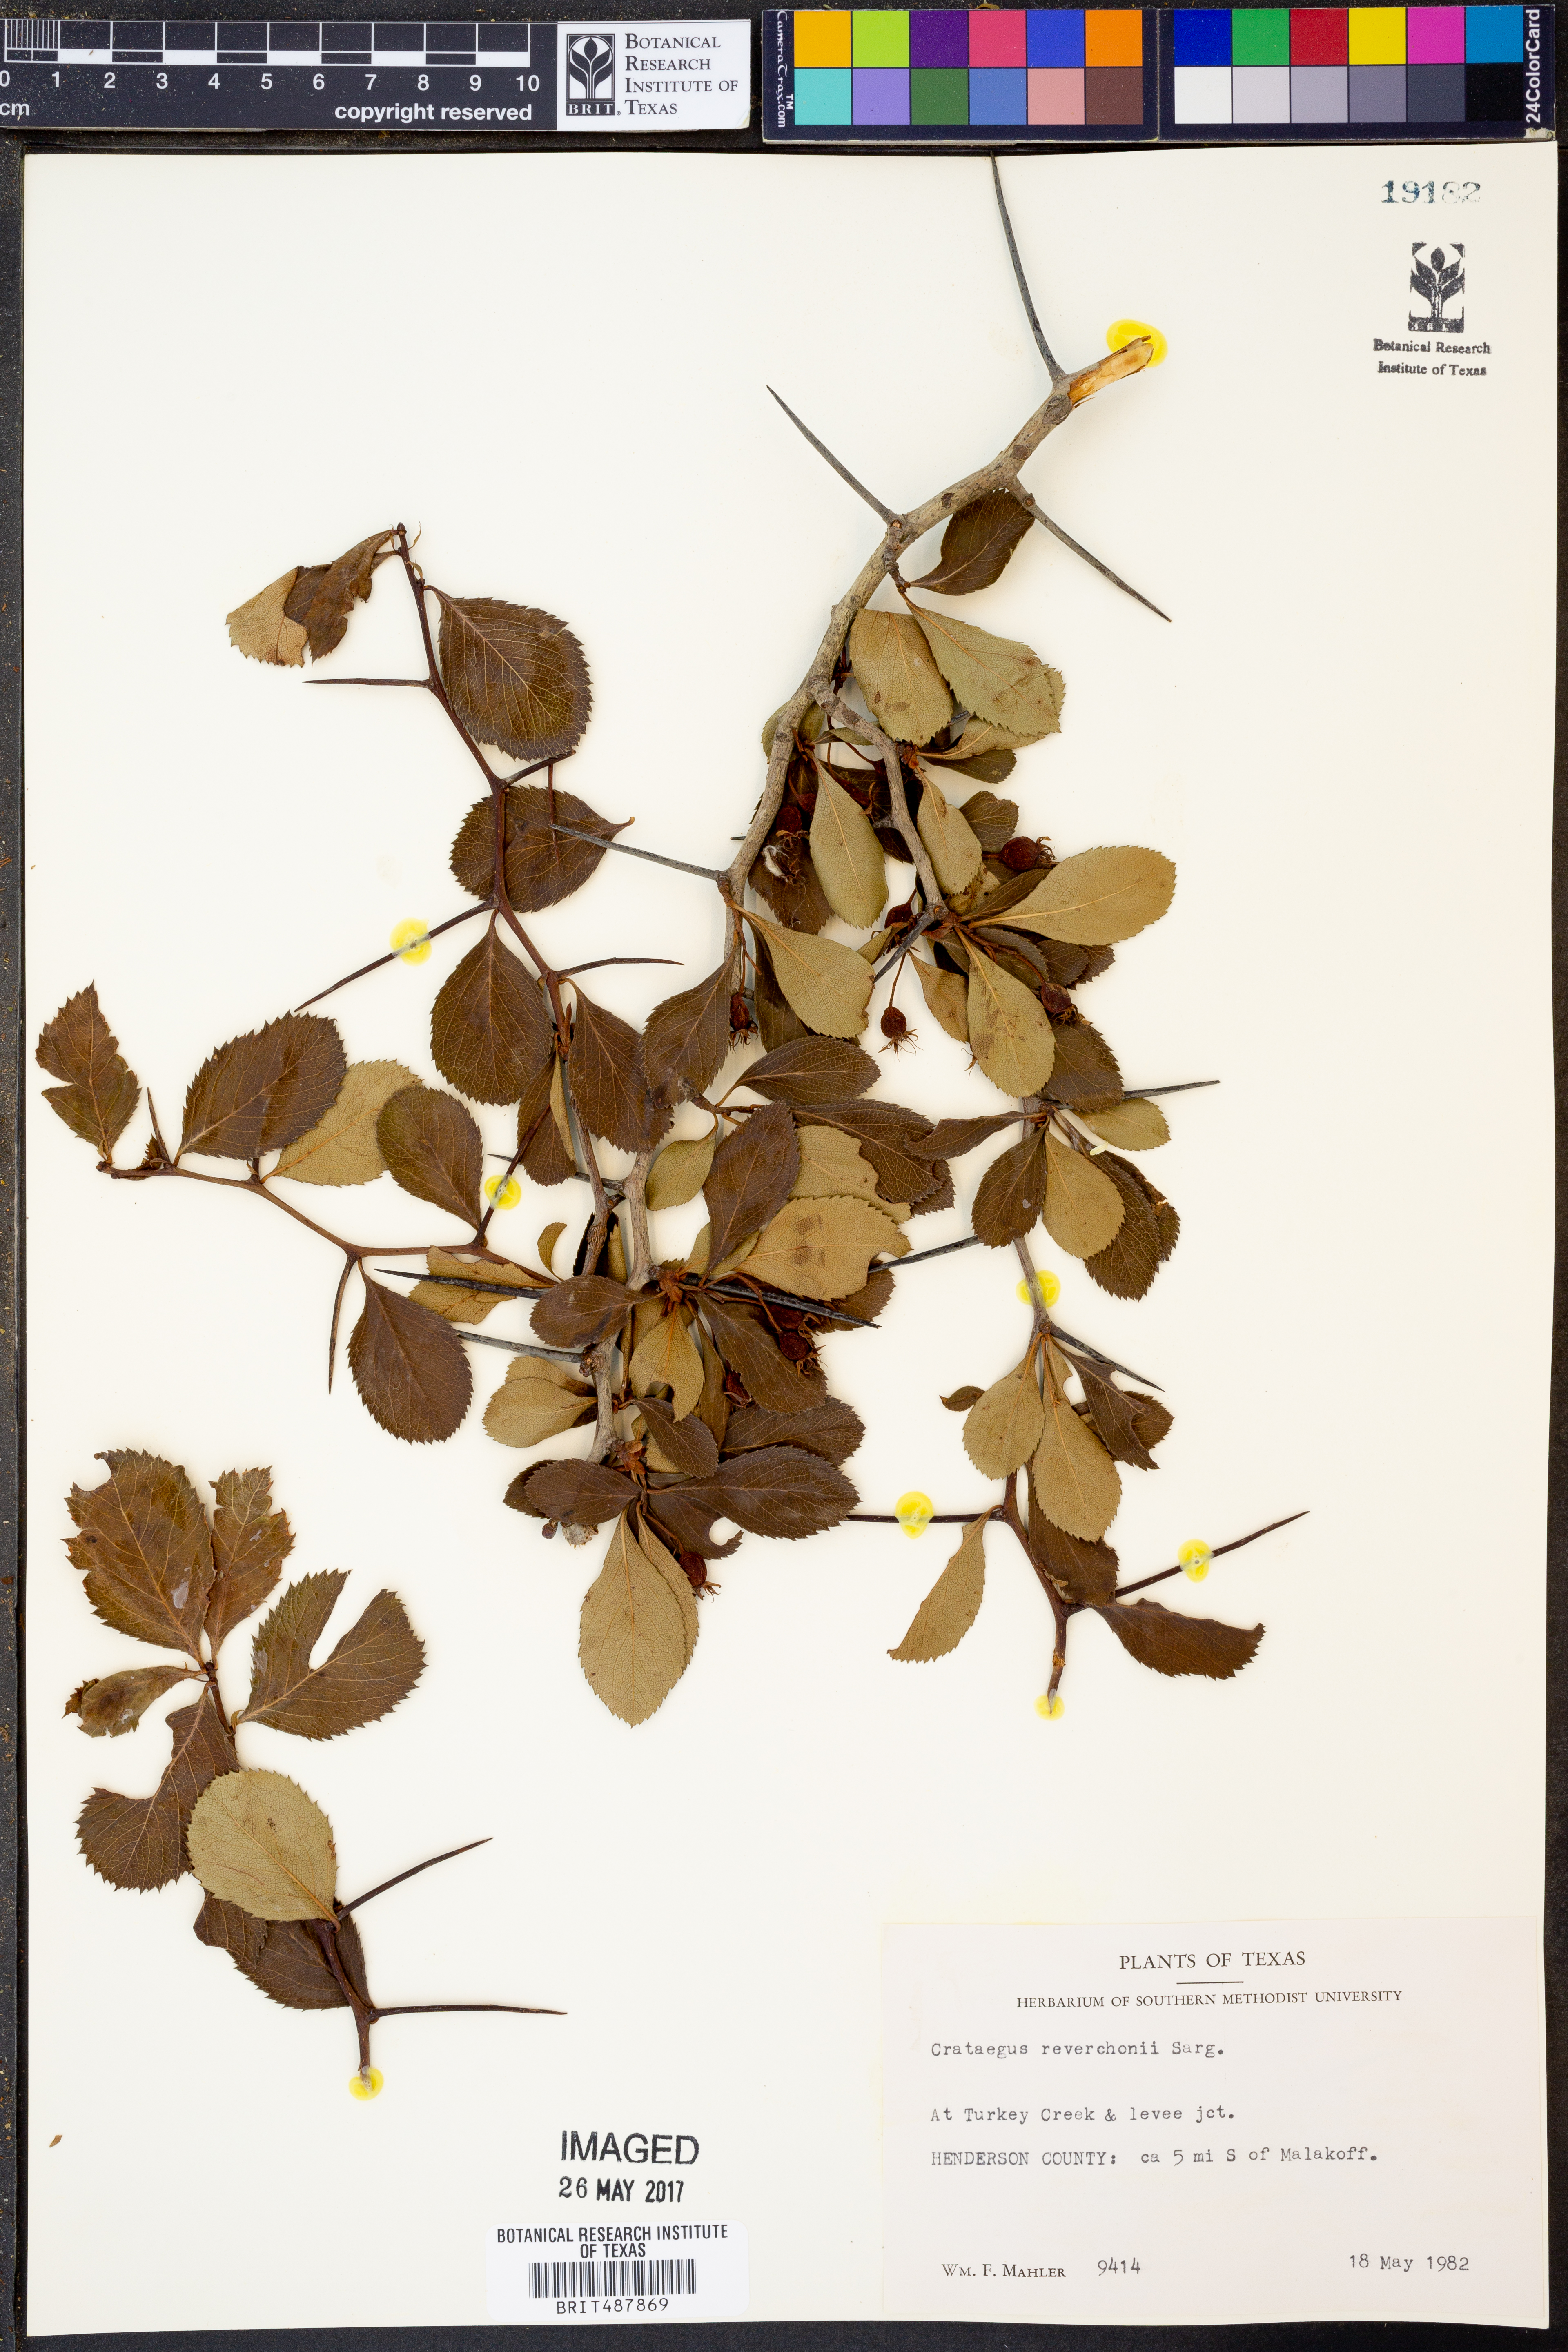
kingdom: Plantae
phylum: Tracheophyta
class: Magnoliopsida
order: Rosales
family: Rosaceae
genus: Crataegus
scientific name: Crataegus reverchonii
